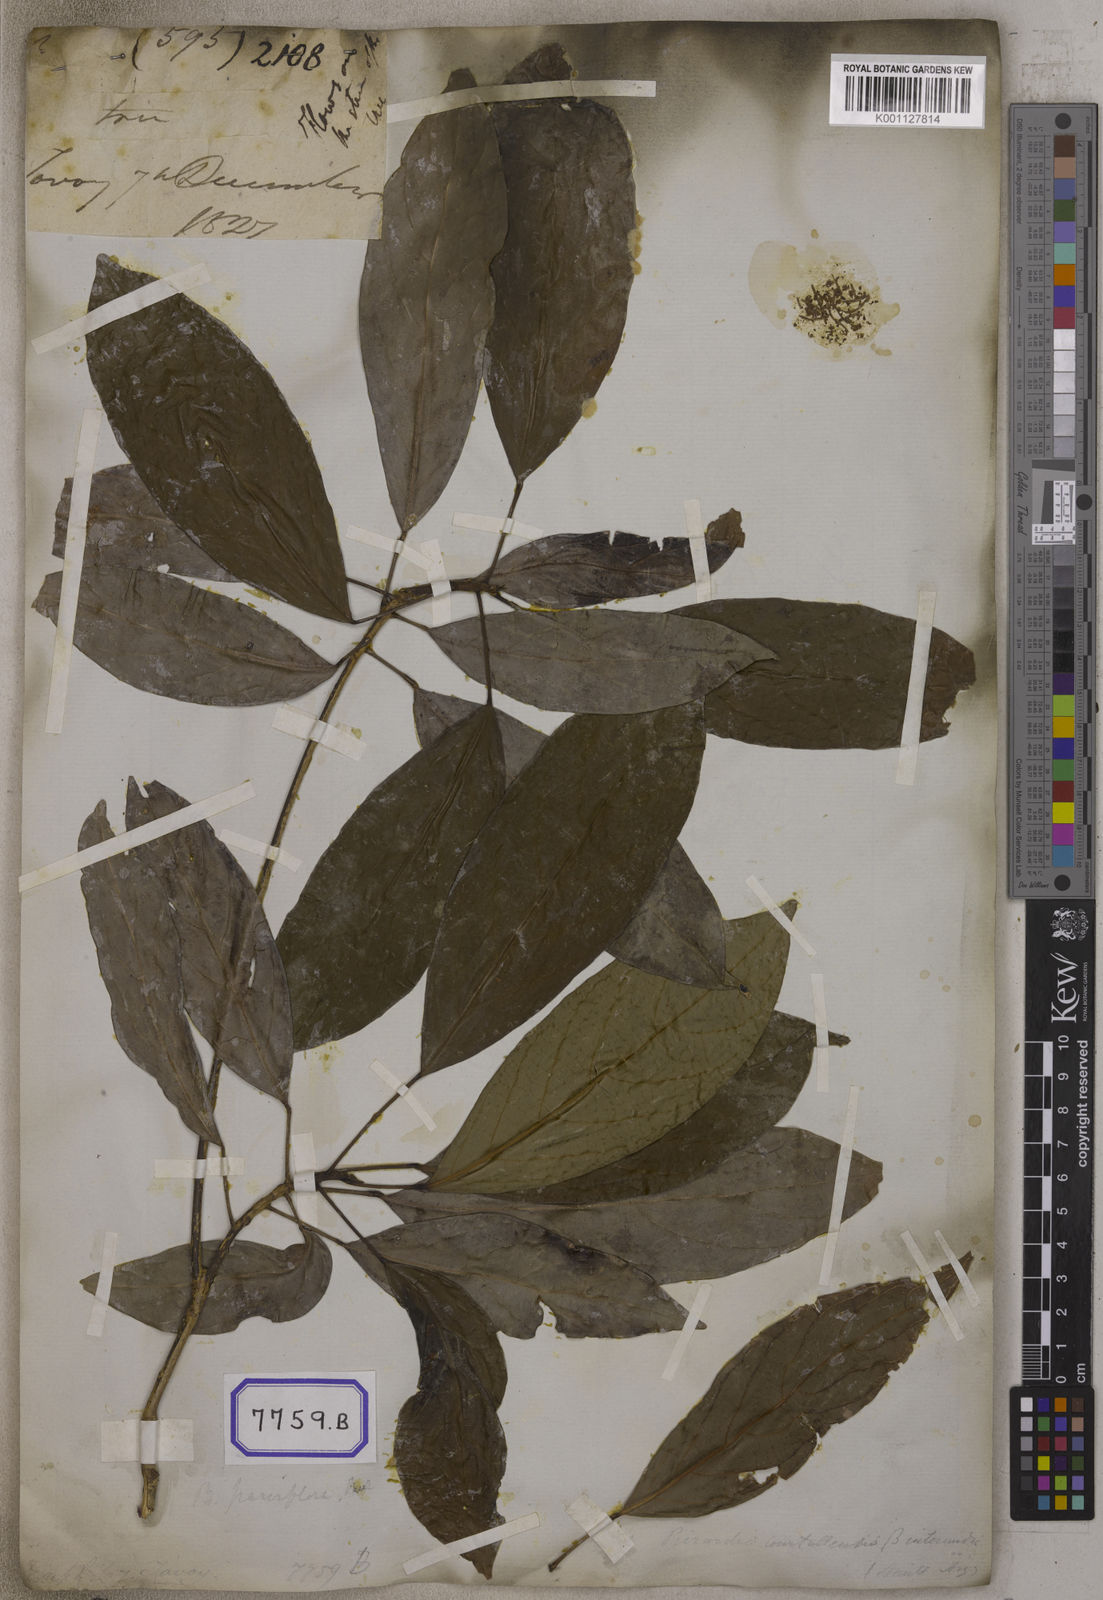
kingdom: Plantae
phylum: Tracheophyta
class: Magnoliopsida
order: Malpighiales
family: Euphorbiaceae
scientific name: Euphorbiaceae
